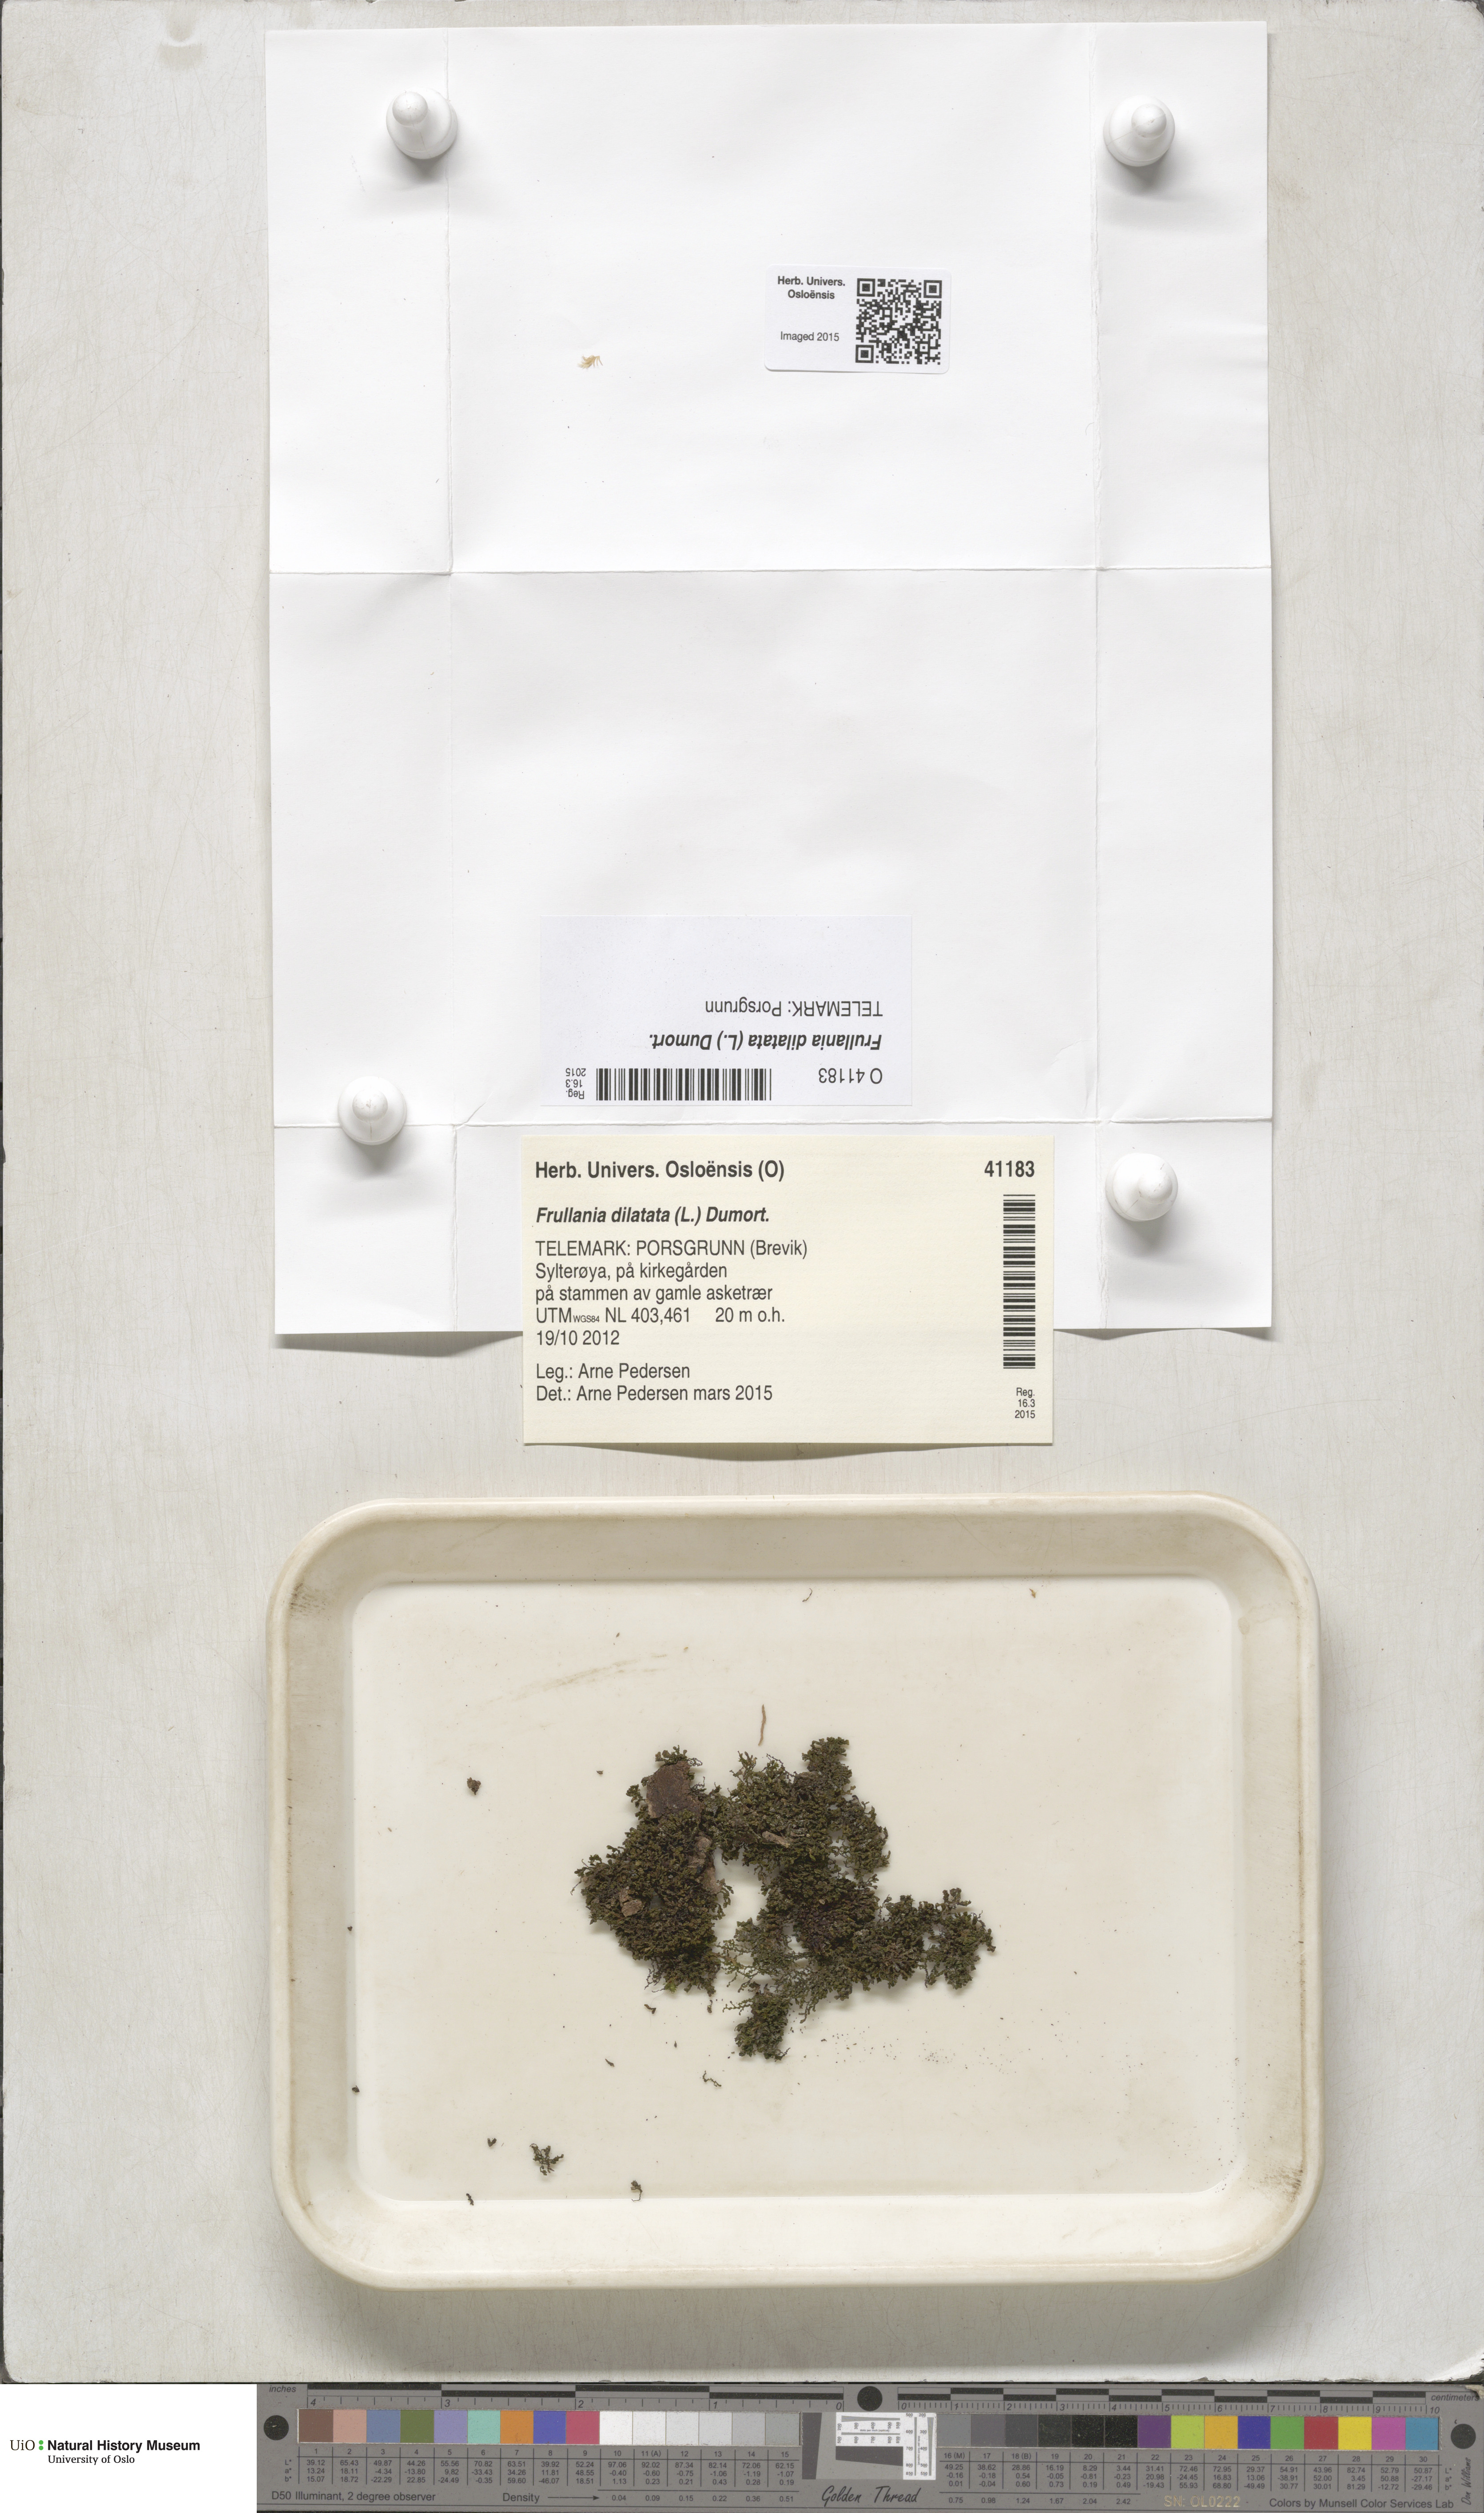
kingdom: Plantae
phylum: Marchantiophyta
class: Jungermanniopsida
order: Porellales
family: Frullaniaceae
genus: Frullania
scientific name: Frullania dilatata
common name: Dilated scalewort
